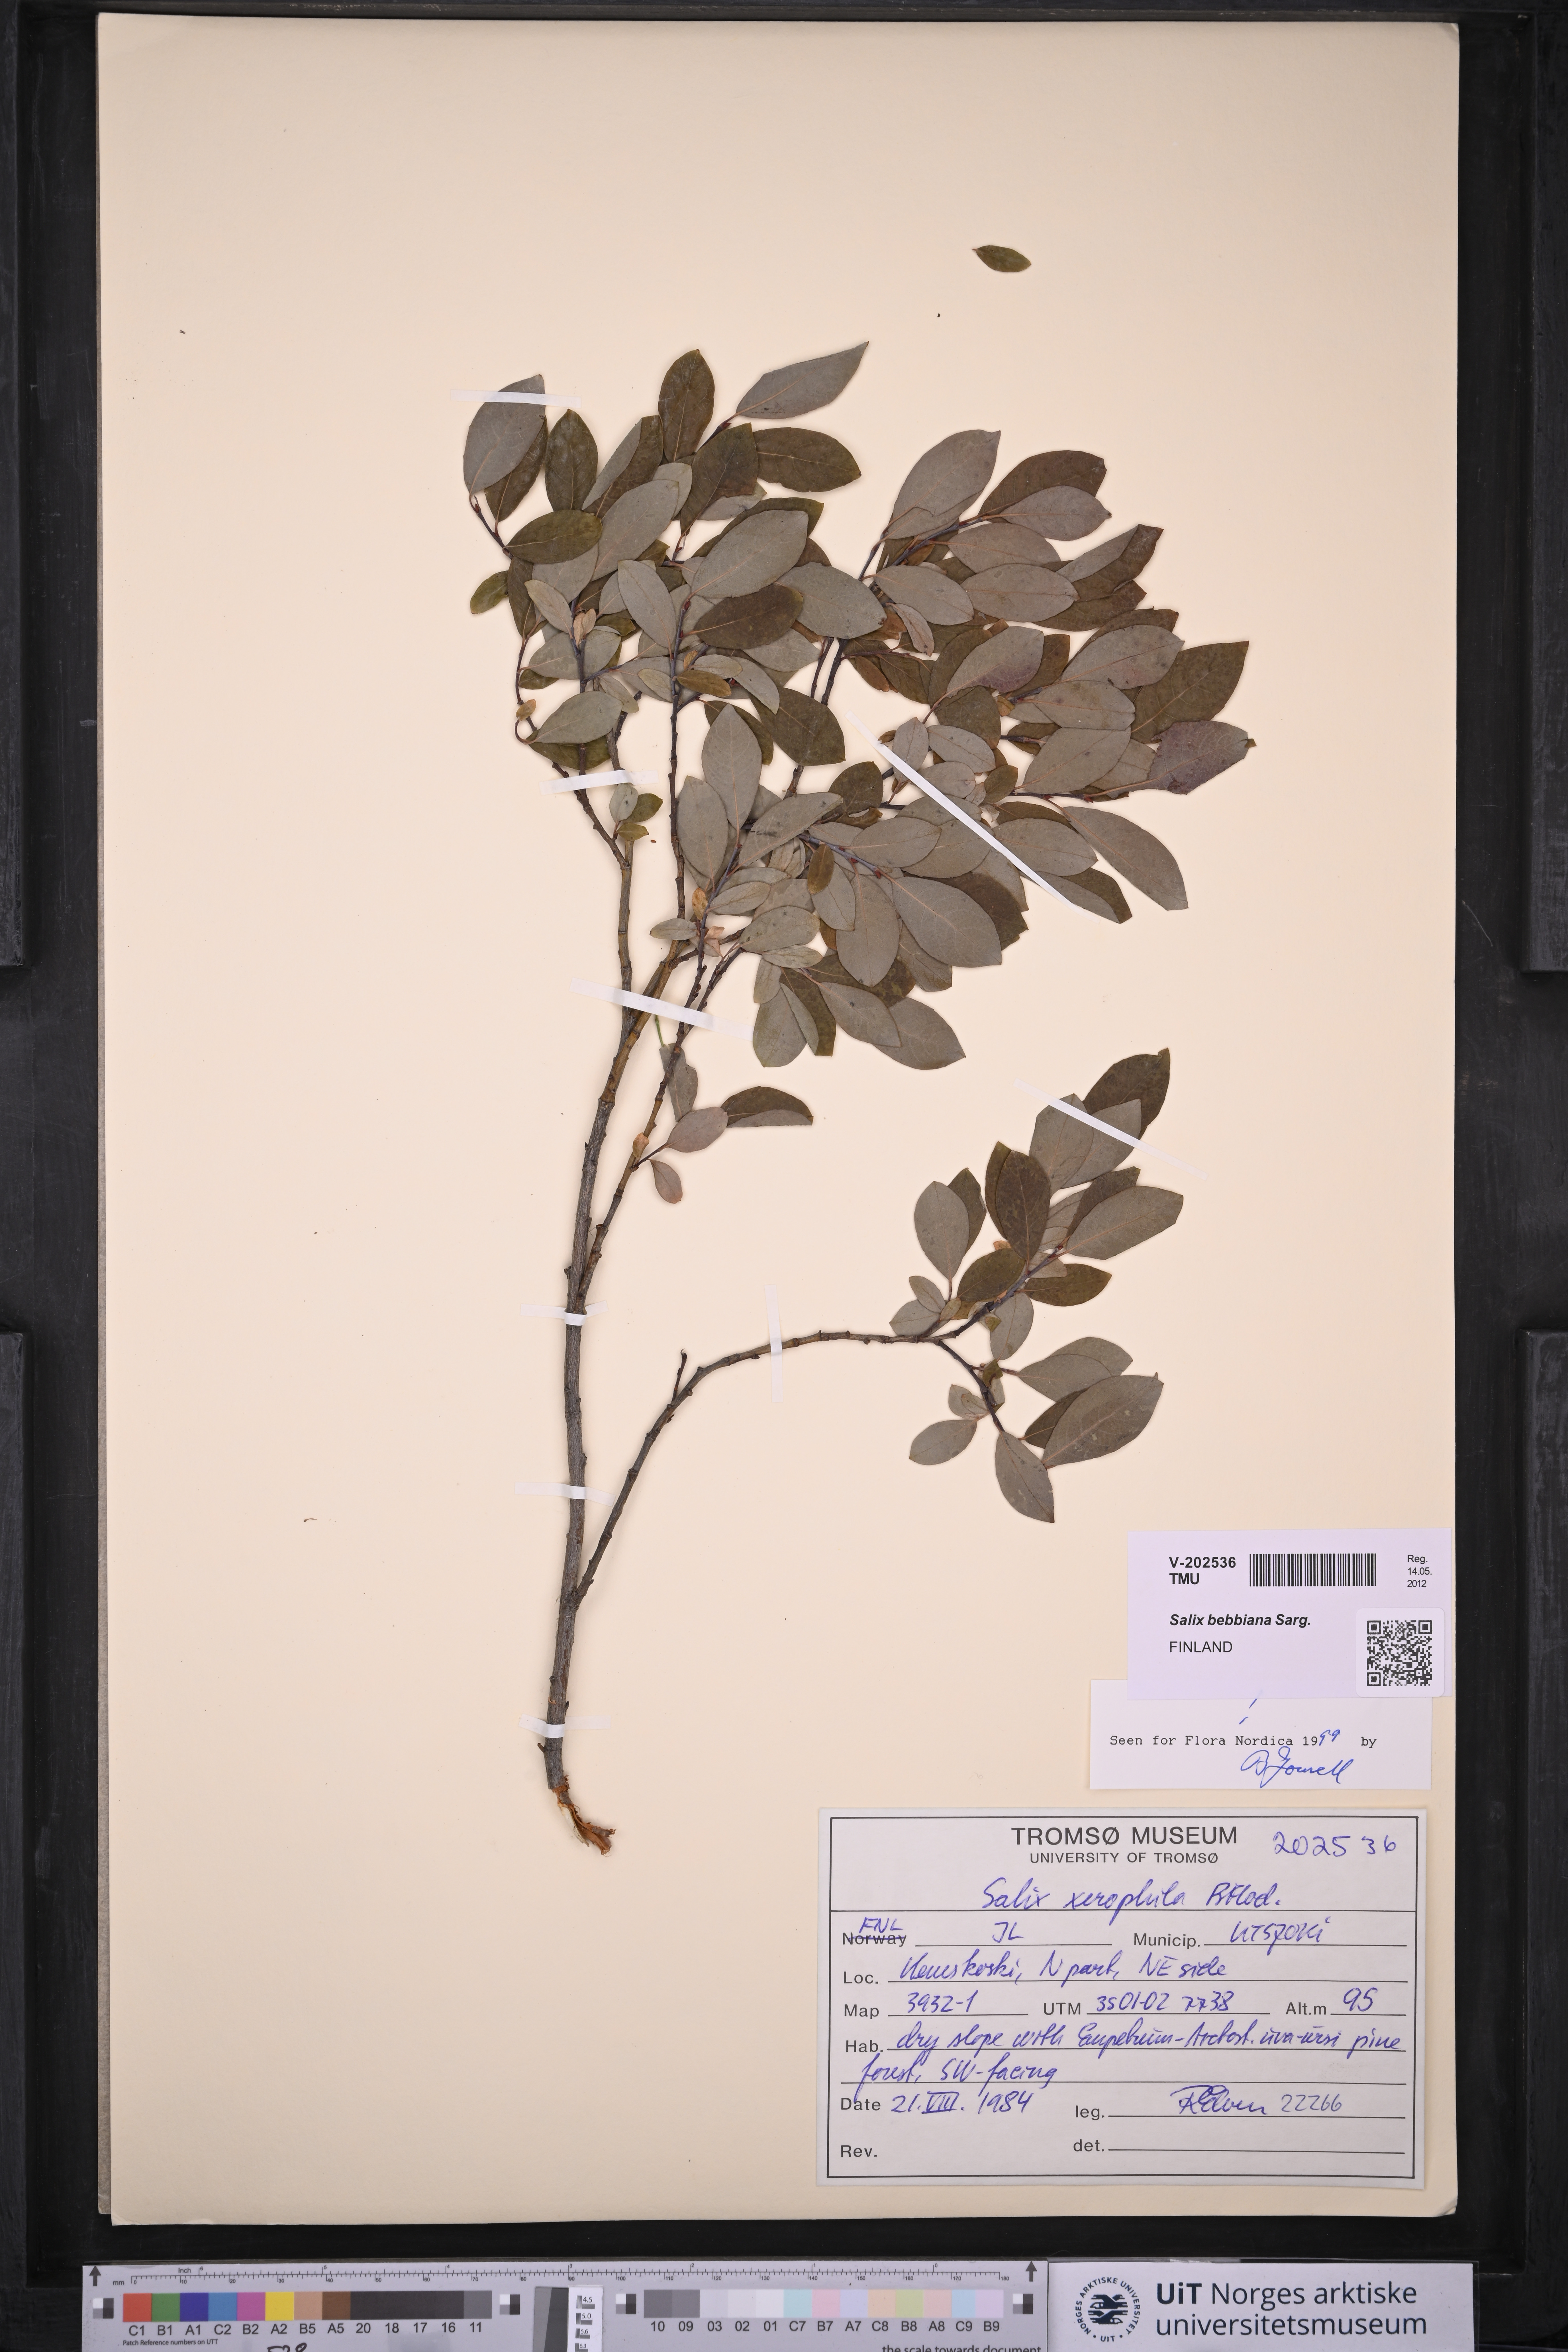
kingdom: Plantae
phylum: Tracheophyta
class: Magnoliopsida
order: Malpighiales
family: Salicaceae
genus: Salix
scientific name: Salix bebbiana
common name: Bebb's willow
